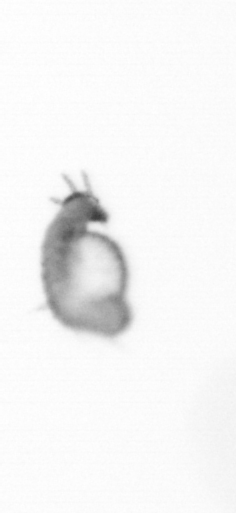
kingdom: Animalia
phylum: Annelida
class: Polychaeta
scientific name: Polychaeta
